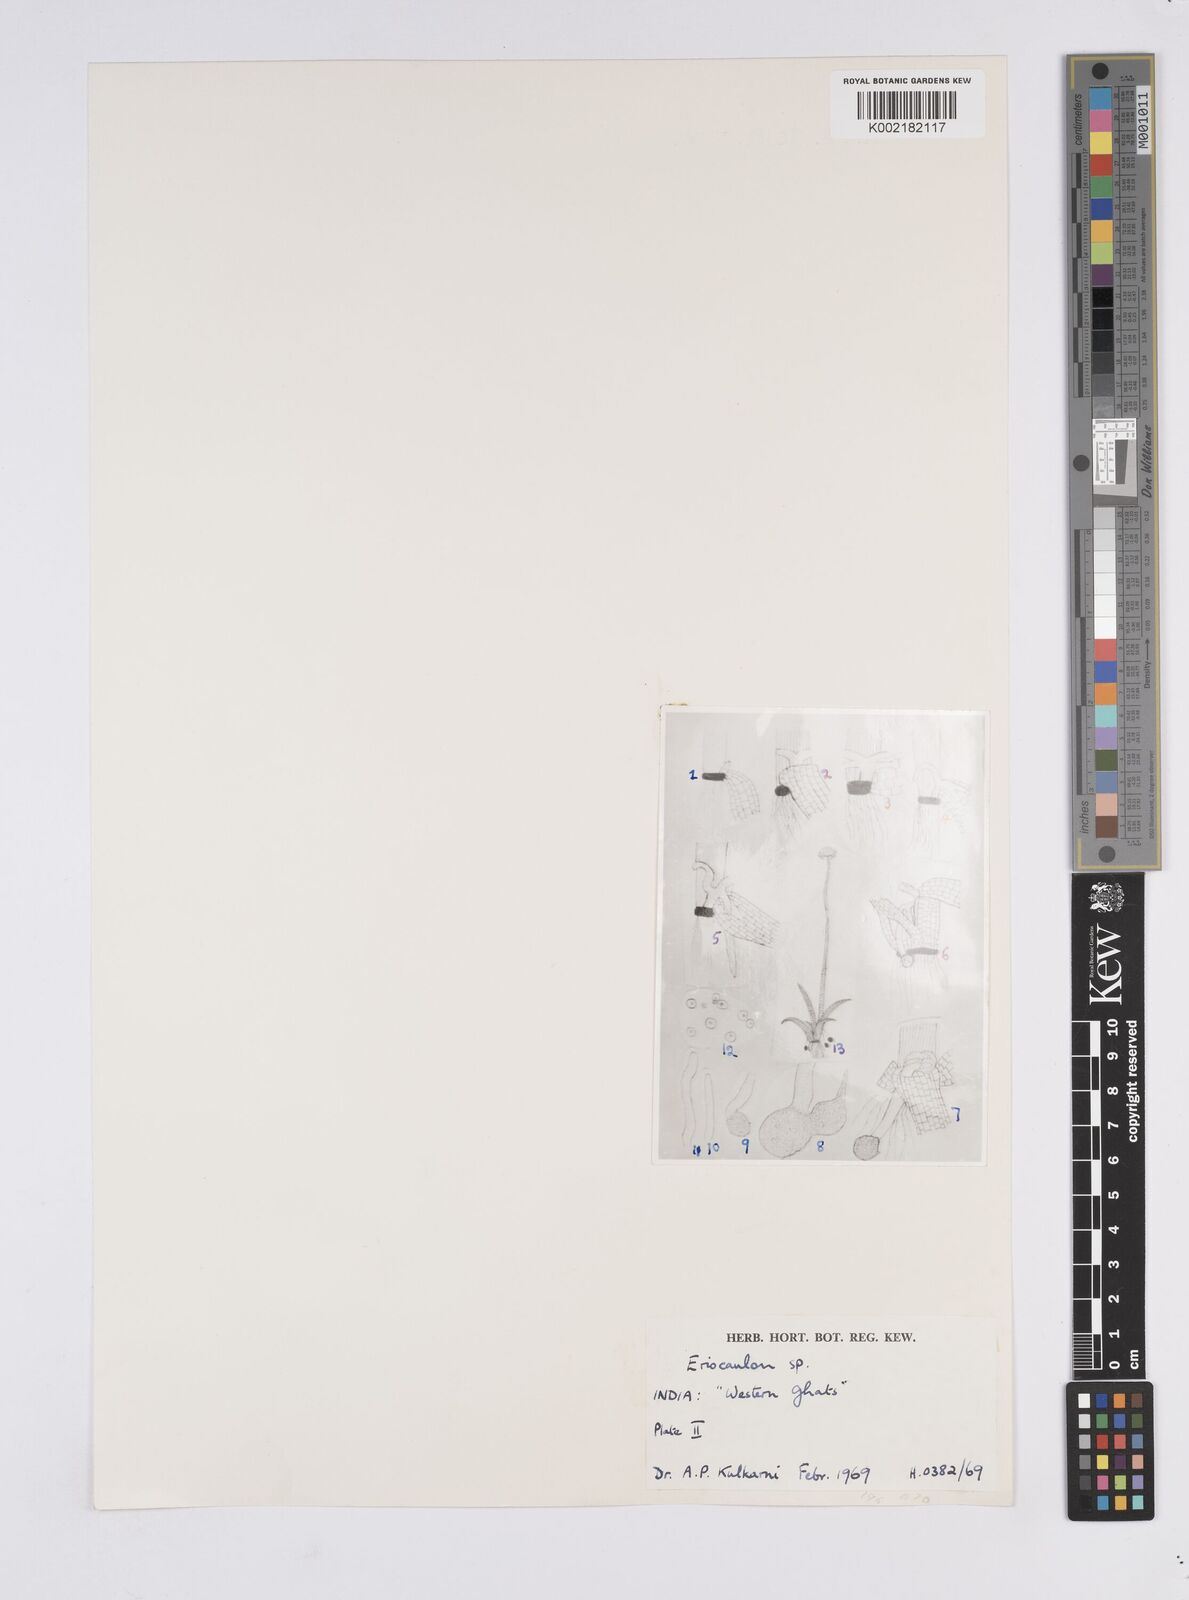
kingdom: Plantae
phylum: Tracheophyta
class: Liliopsida
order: Poales
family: Eriocaulaceae
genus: Eriocaulon
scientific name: Eriocaulon
